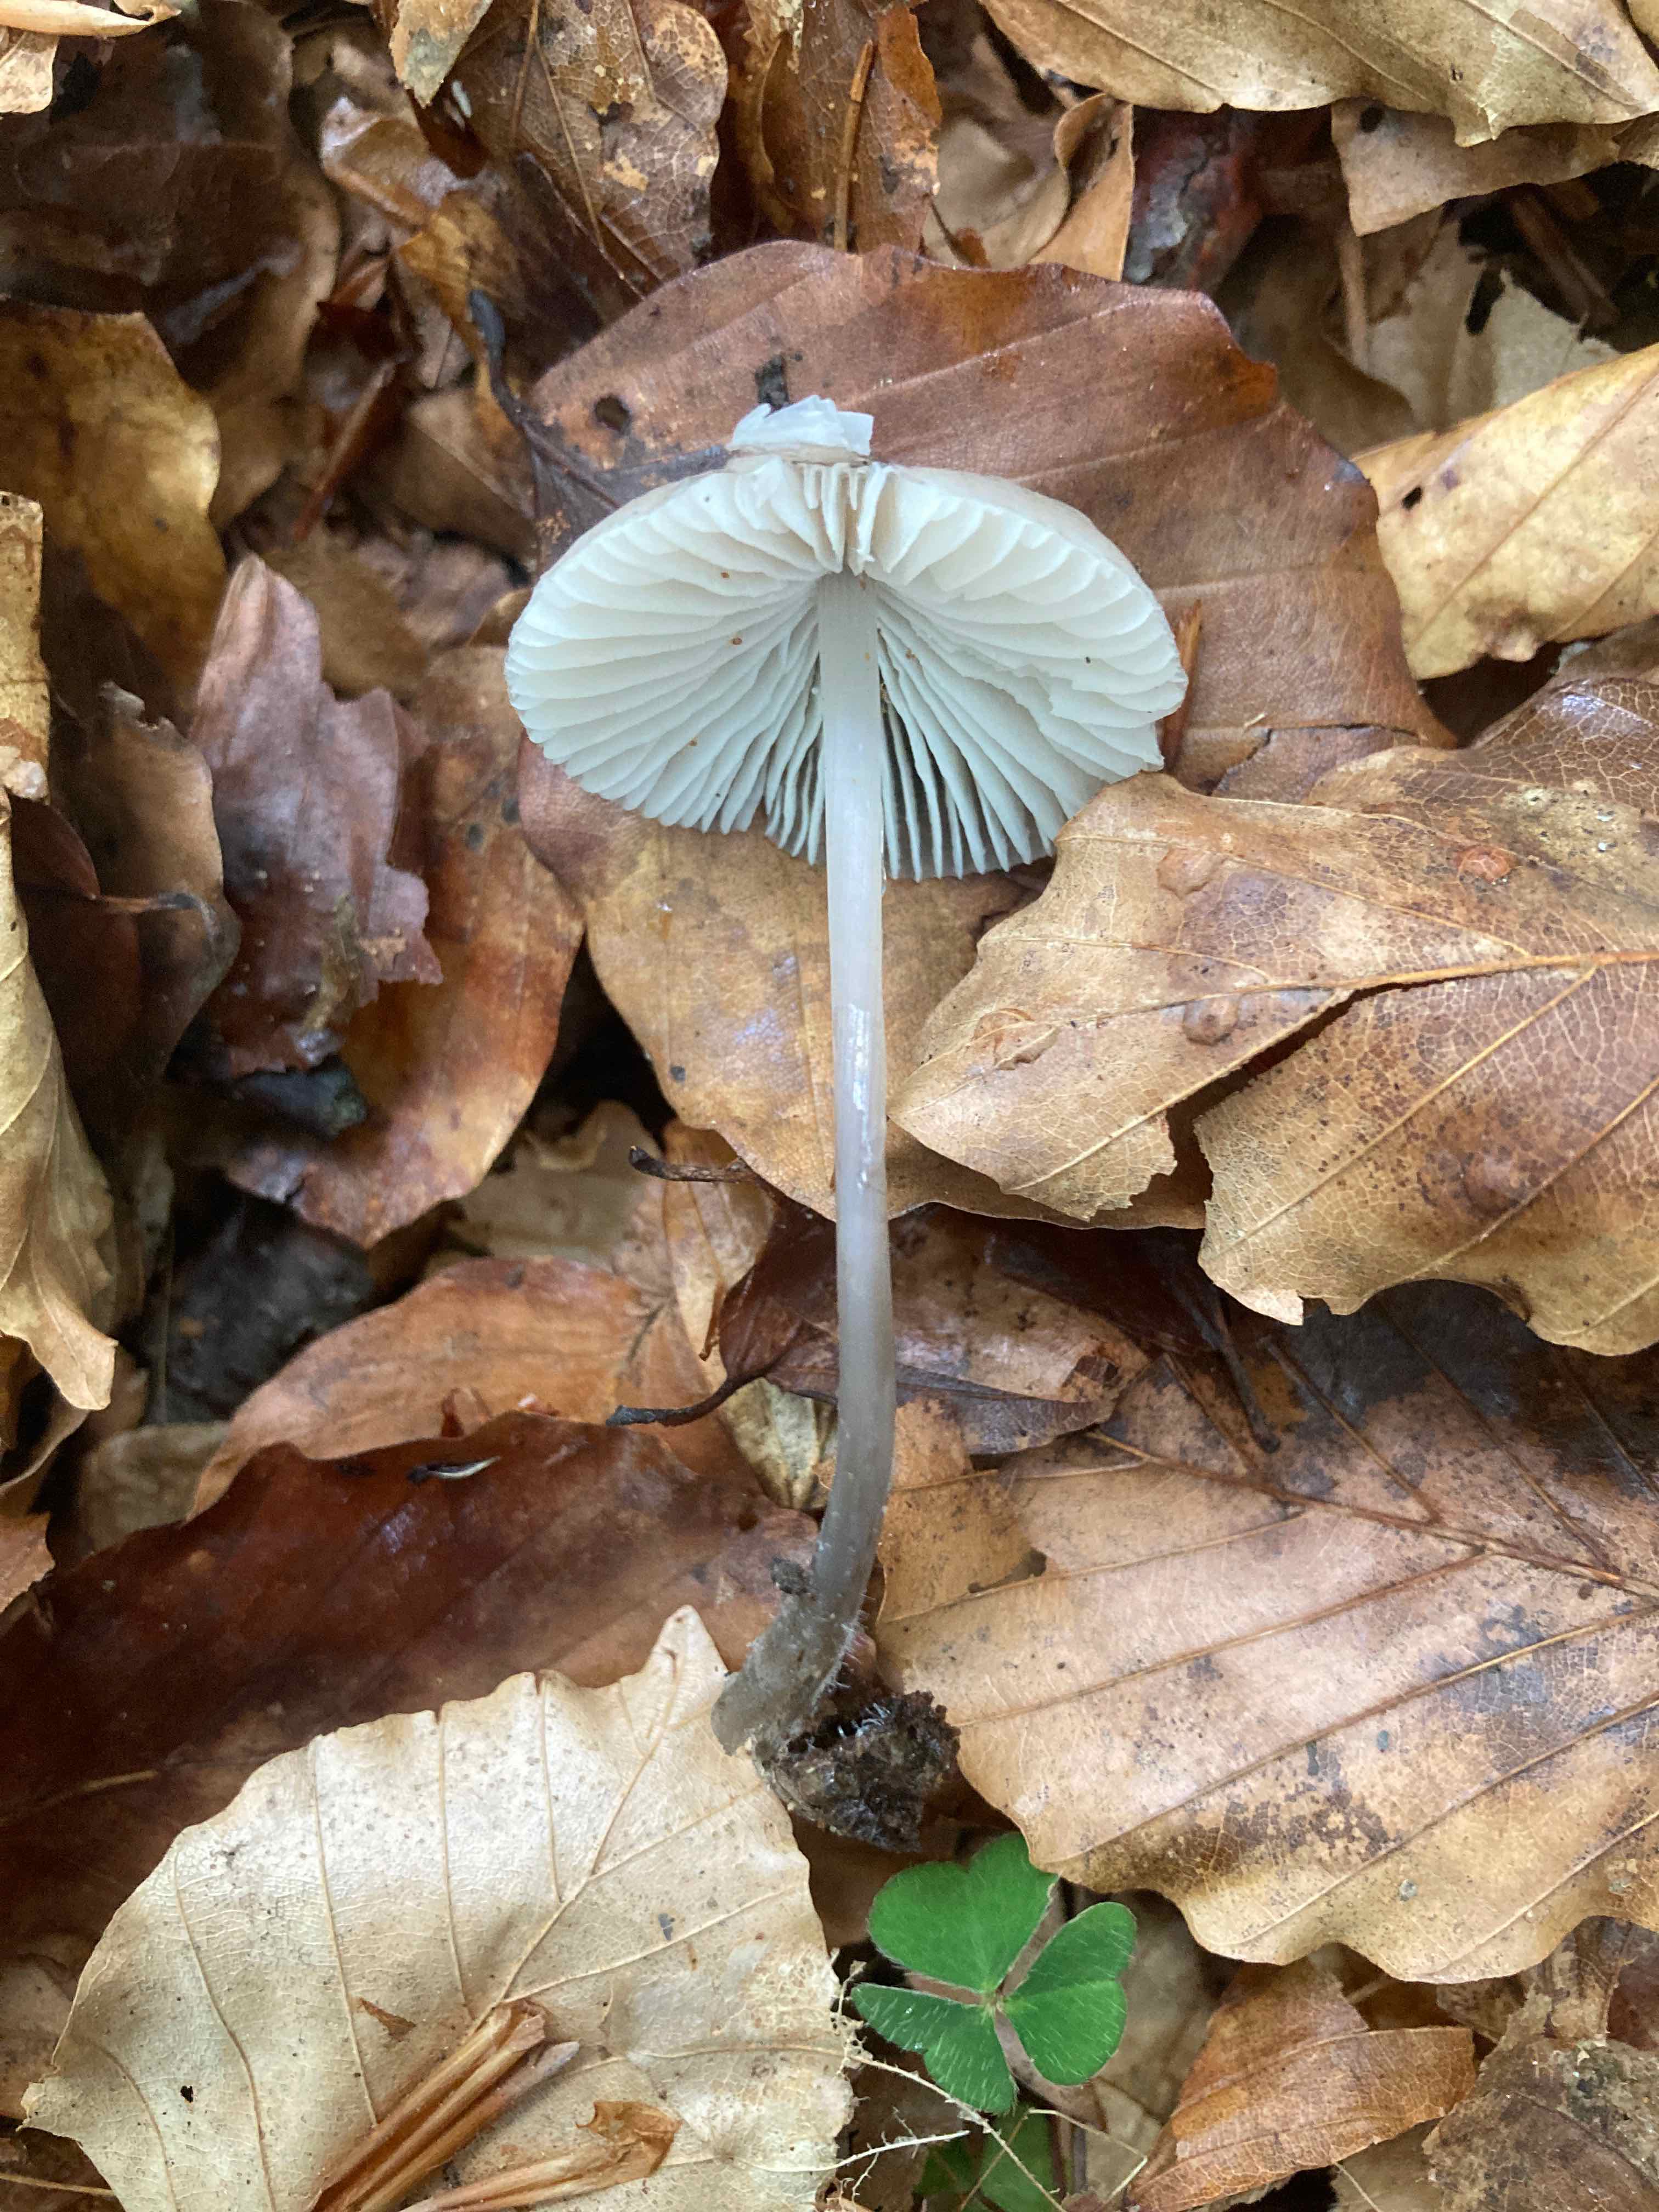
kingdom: Fungi
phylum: Basidiomycota
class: Agaricomycetes
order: Agaricales
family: Mycenaceae
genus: Mycena
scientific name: Mycena abramsii
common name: sommer-huesvamp
